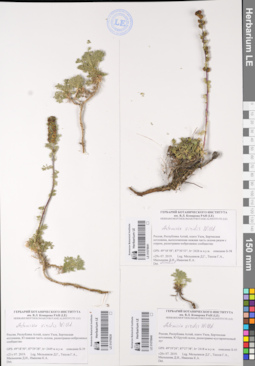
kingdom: Plantae
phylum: Tracheophyta
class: Magnoliopsida
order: Asterales
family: Asteraceae
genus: Artemisia
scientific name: Artemisia viridis
